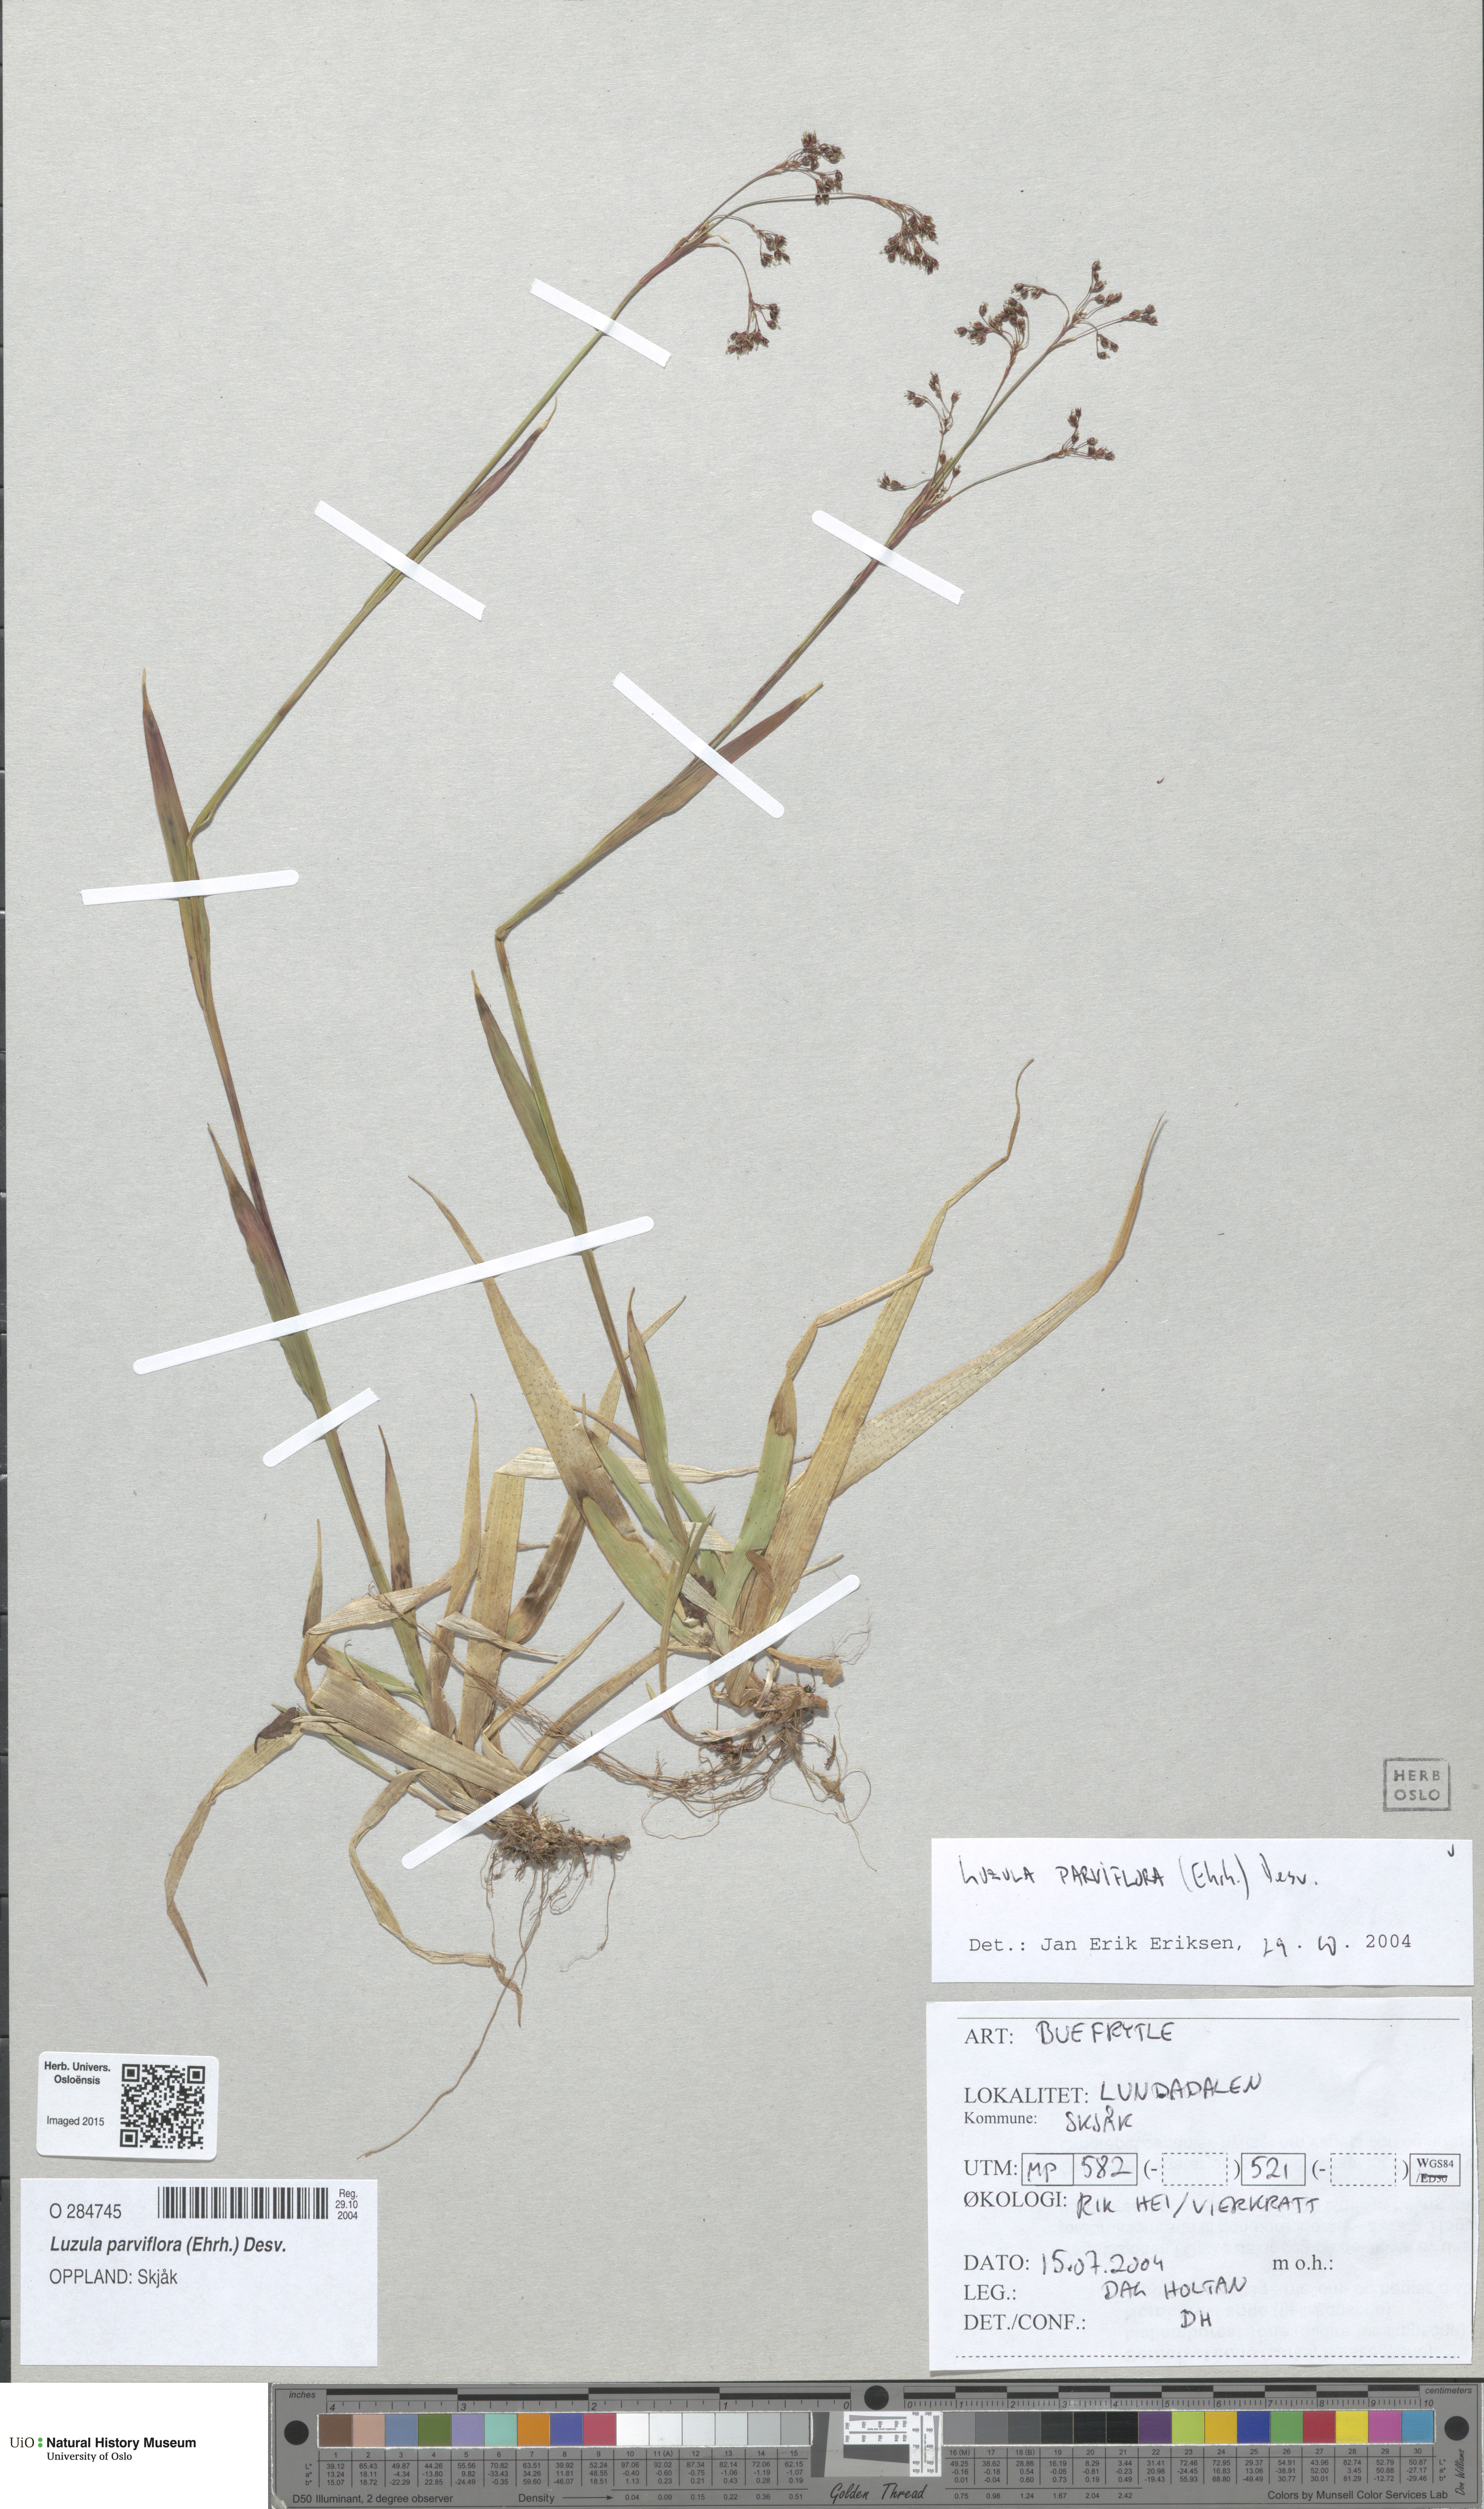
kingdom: Plantae
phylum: Tracheophyta
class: Liliopsida
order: Poales
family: Juncaceae
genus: Luzula
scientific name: Luzula parviflora
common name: Millet woodrush
